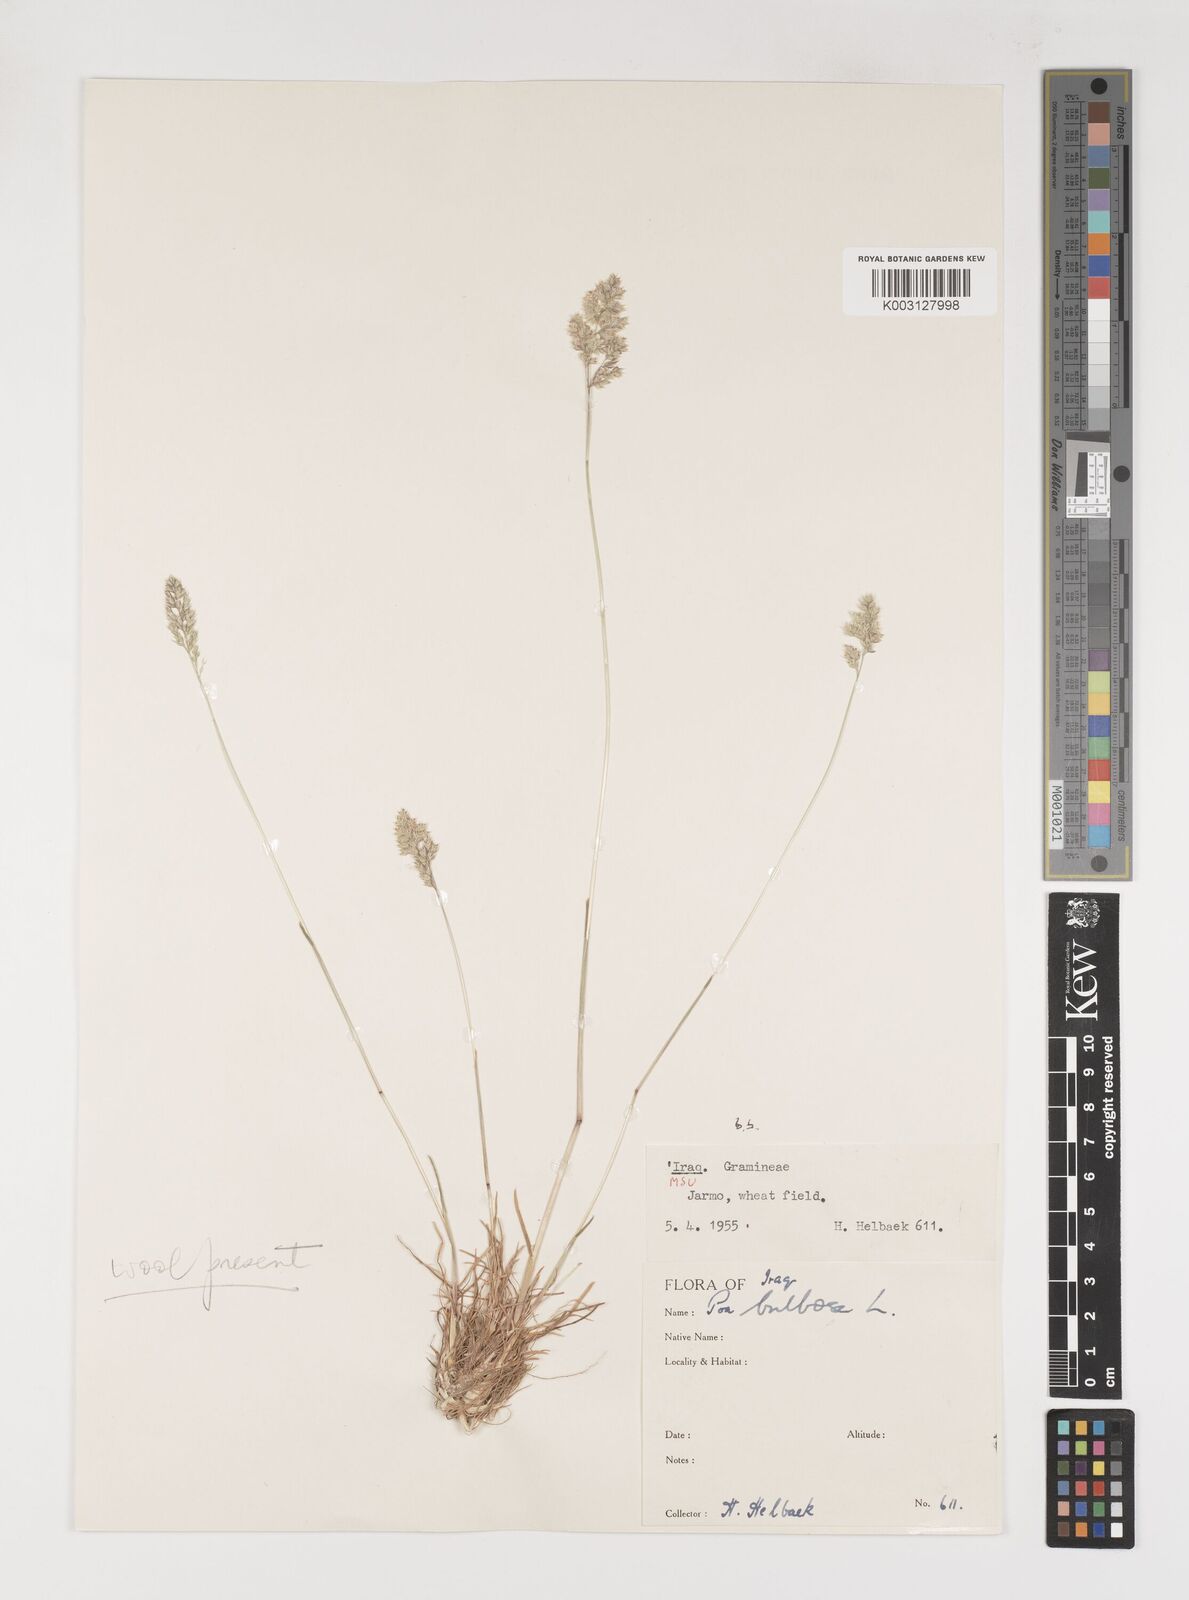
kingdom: Plantae
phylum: Tracheophyta
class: Liliopsida
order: Poales
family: Poaceae
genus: Poa
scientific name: Poa bulbosa
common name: Bulbous bluegrass
